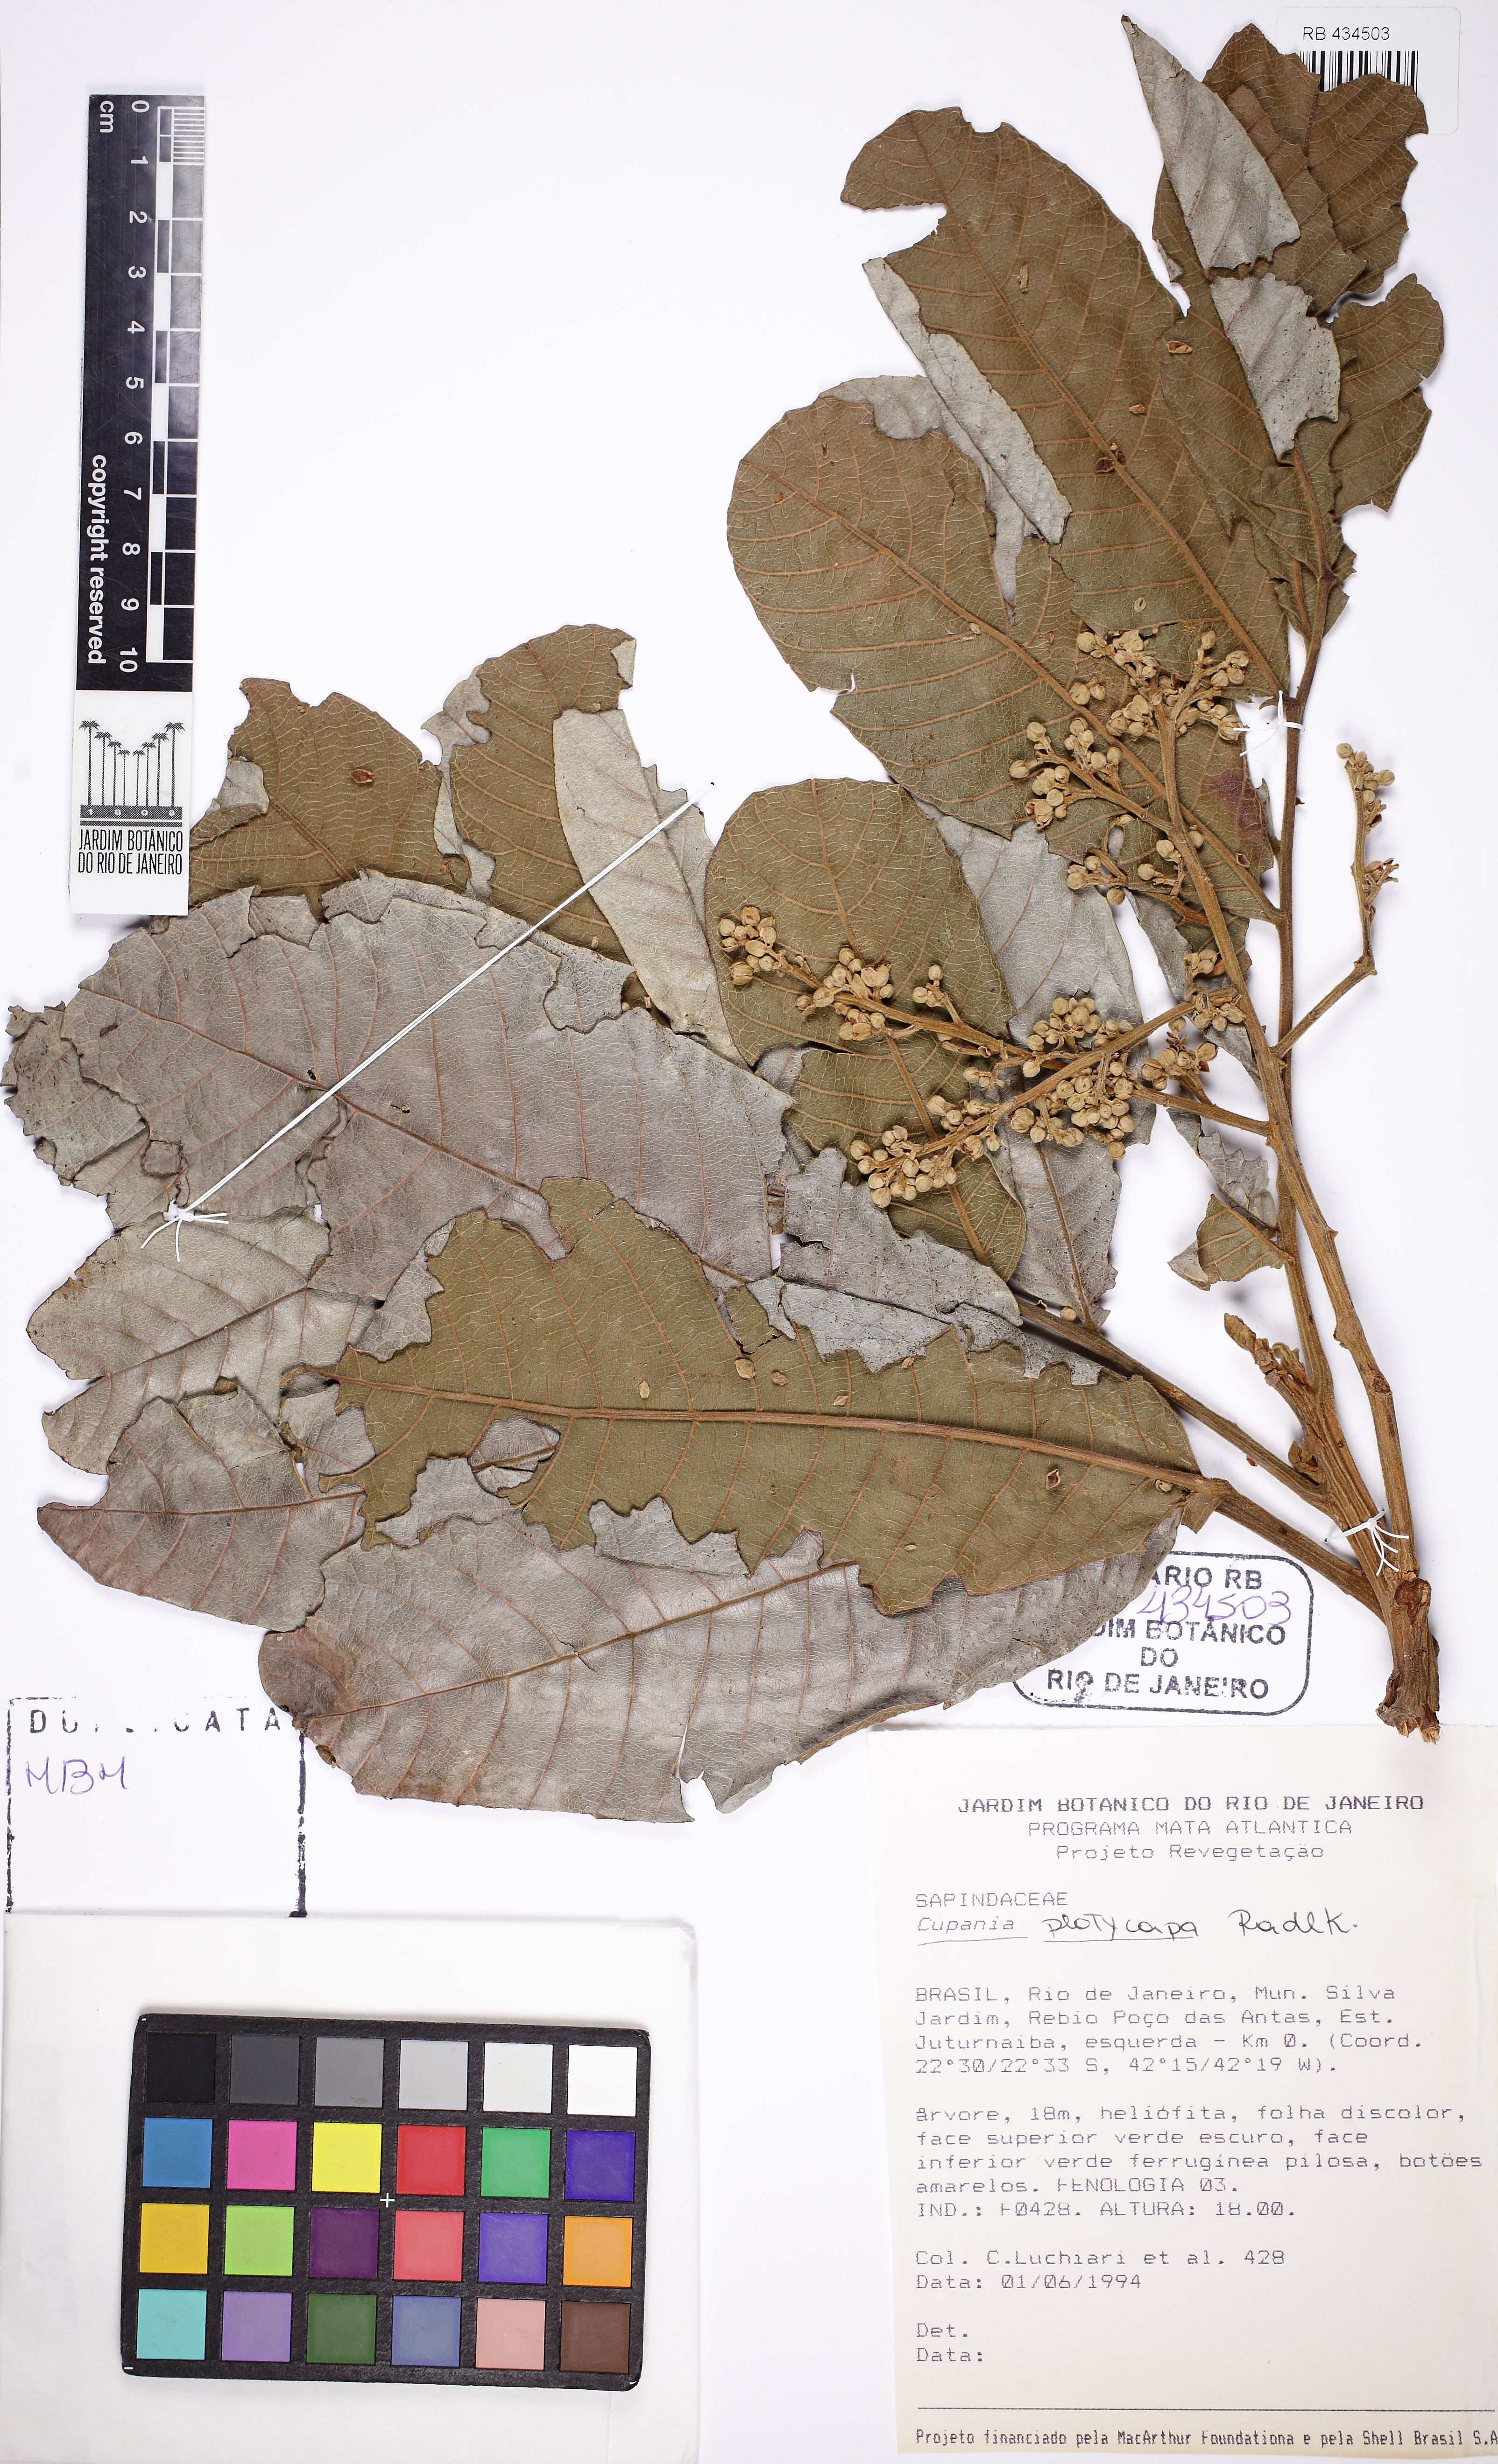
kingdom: Plantae
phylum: Tracheophyta
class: Magnoliopsida
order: Sapindales
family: Sapindaceae
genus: Cupania
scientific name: Cupania platycarpa
